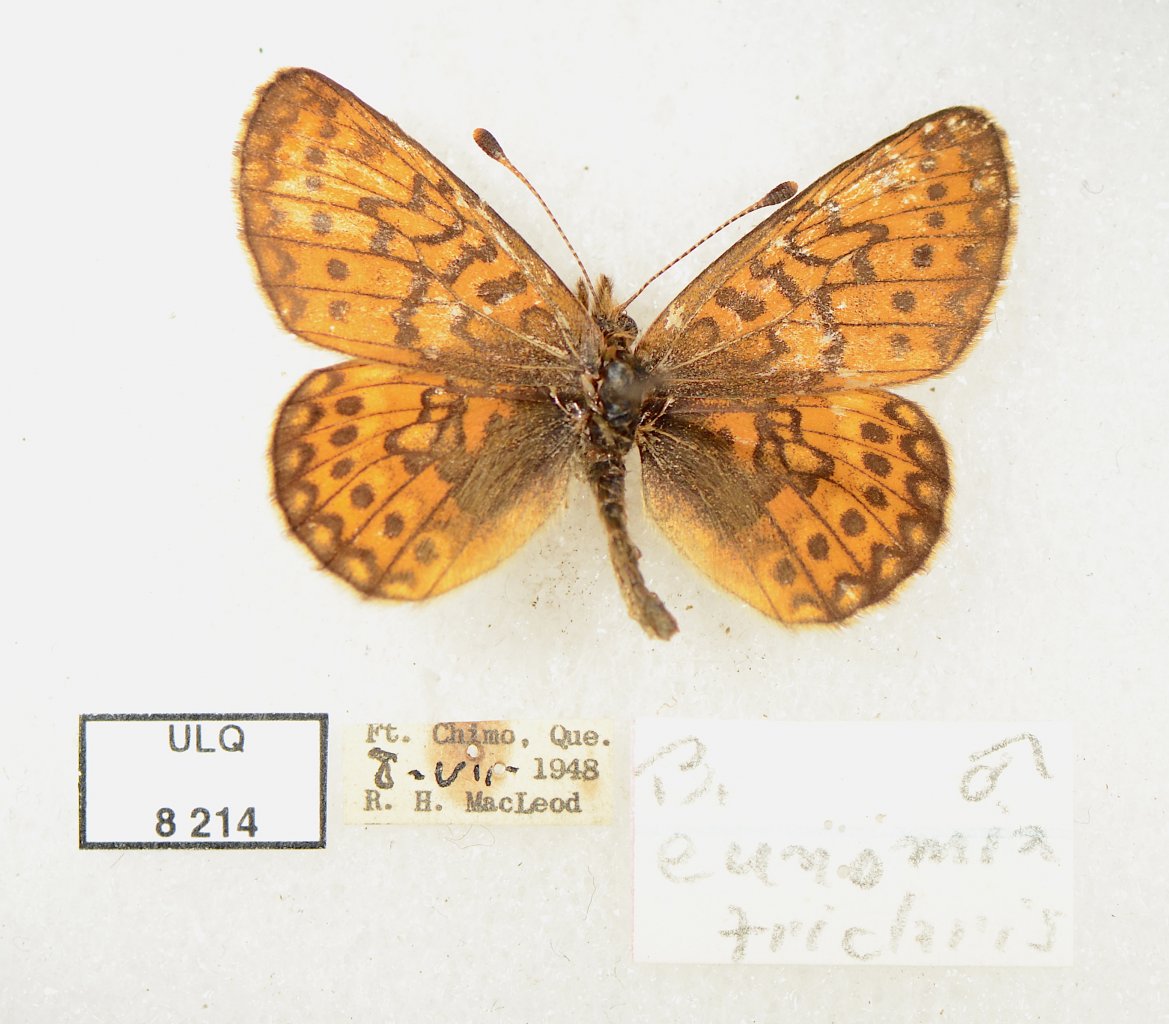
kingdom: Animalia
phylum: Arthropoda
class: Insecta
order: Lepidoptera
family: Nymphalidae
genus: Boloria
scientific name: Boloria eunomia
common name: Bog Fritillary
